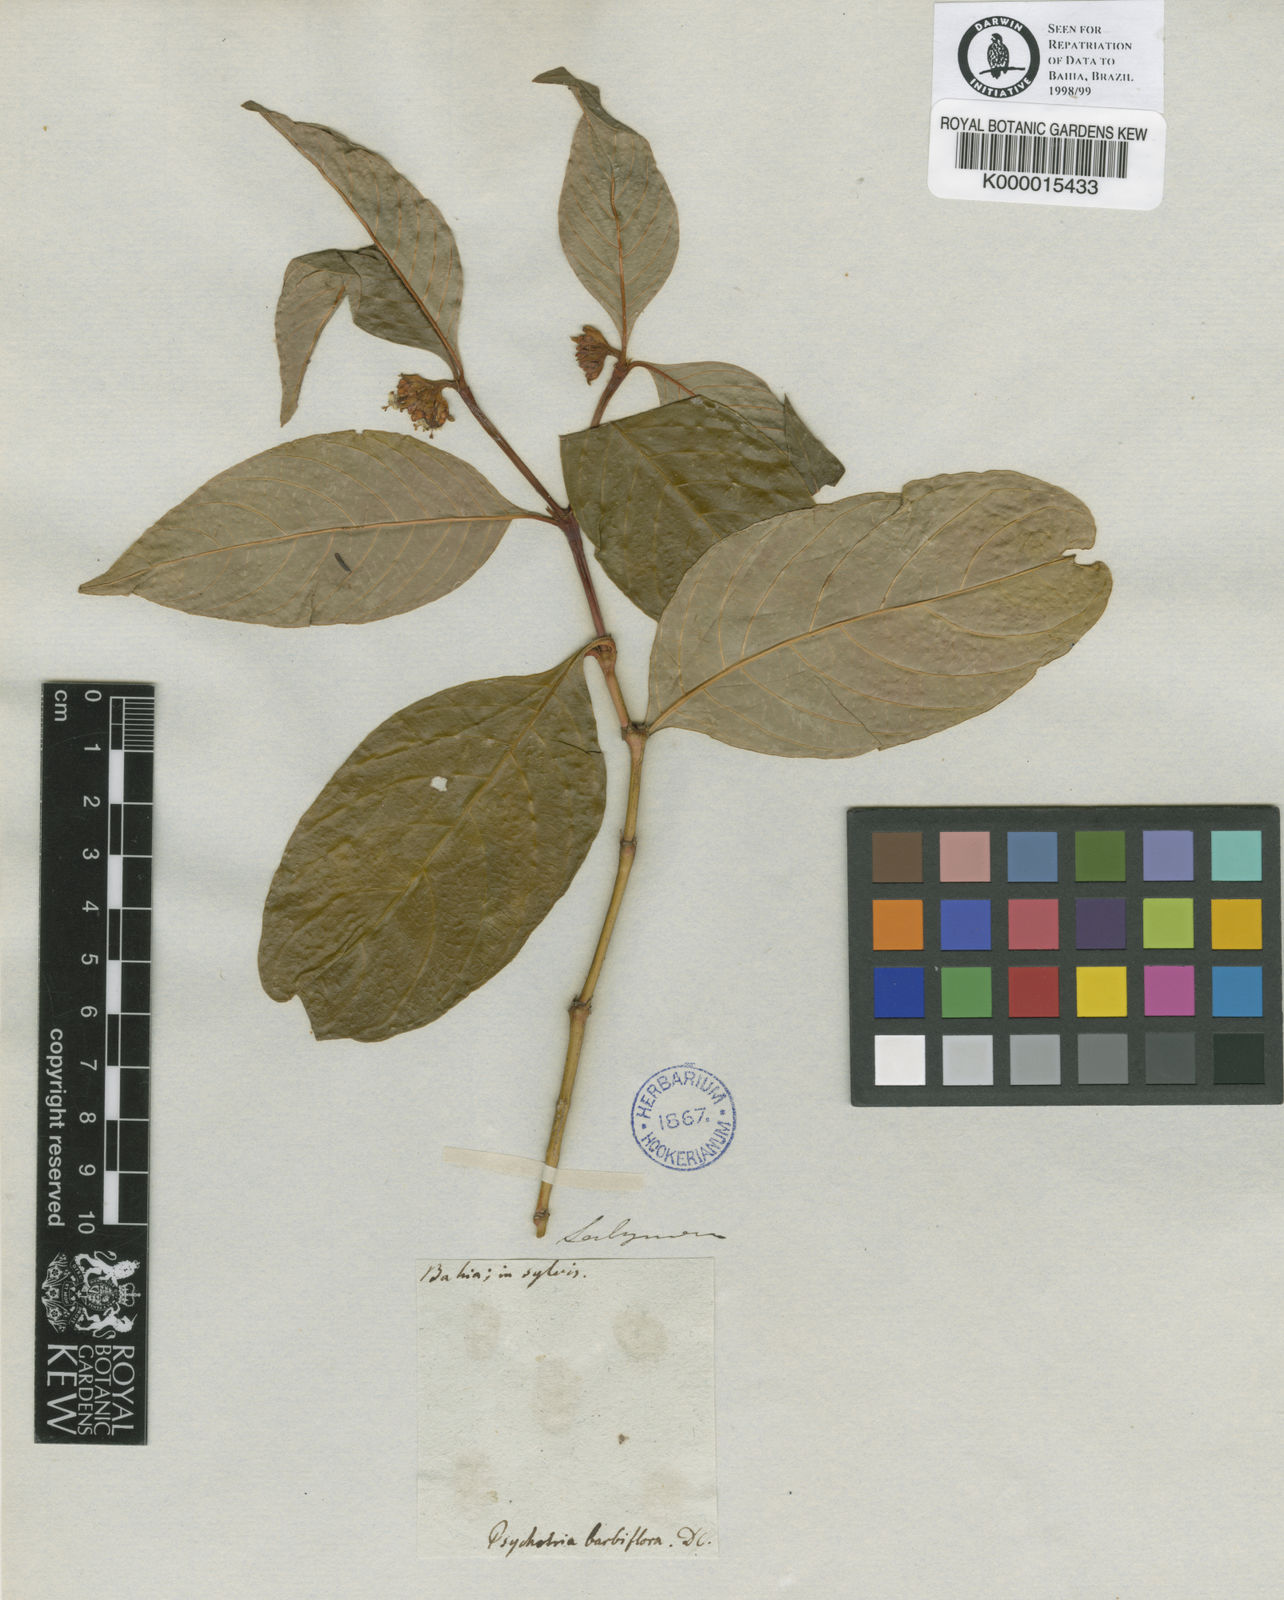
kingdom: Plantae
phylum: Tracheophyta
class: Magnoliopsida
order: Gentianales
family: Rubiaceae
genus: Palicourea
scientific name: Palicourea hoffmannseggiana
